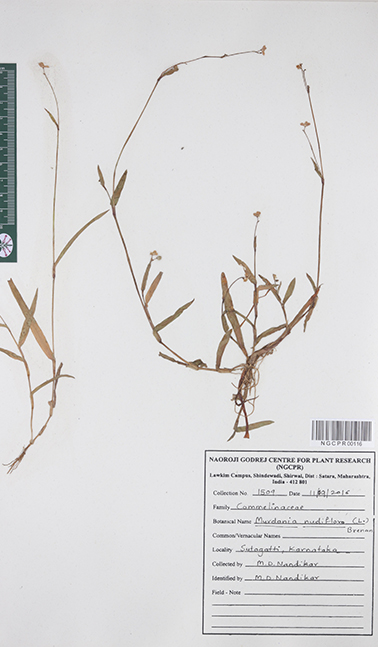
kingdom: Plantae
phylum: Tracheophyta
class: Liliopsida
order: Commelinales
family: Commelinaceae
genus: Murdannia
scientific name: Murdannia nudiflora
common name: Nakedstem dewflower
